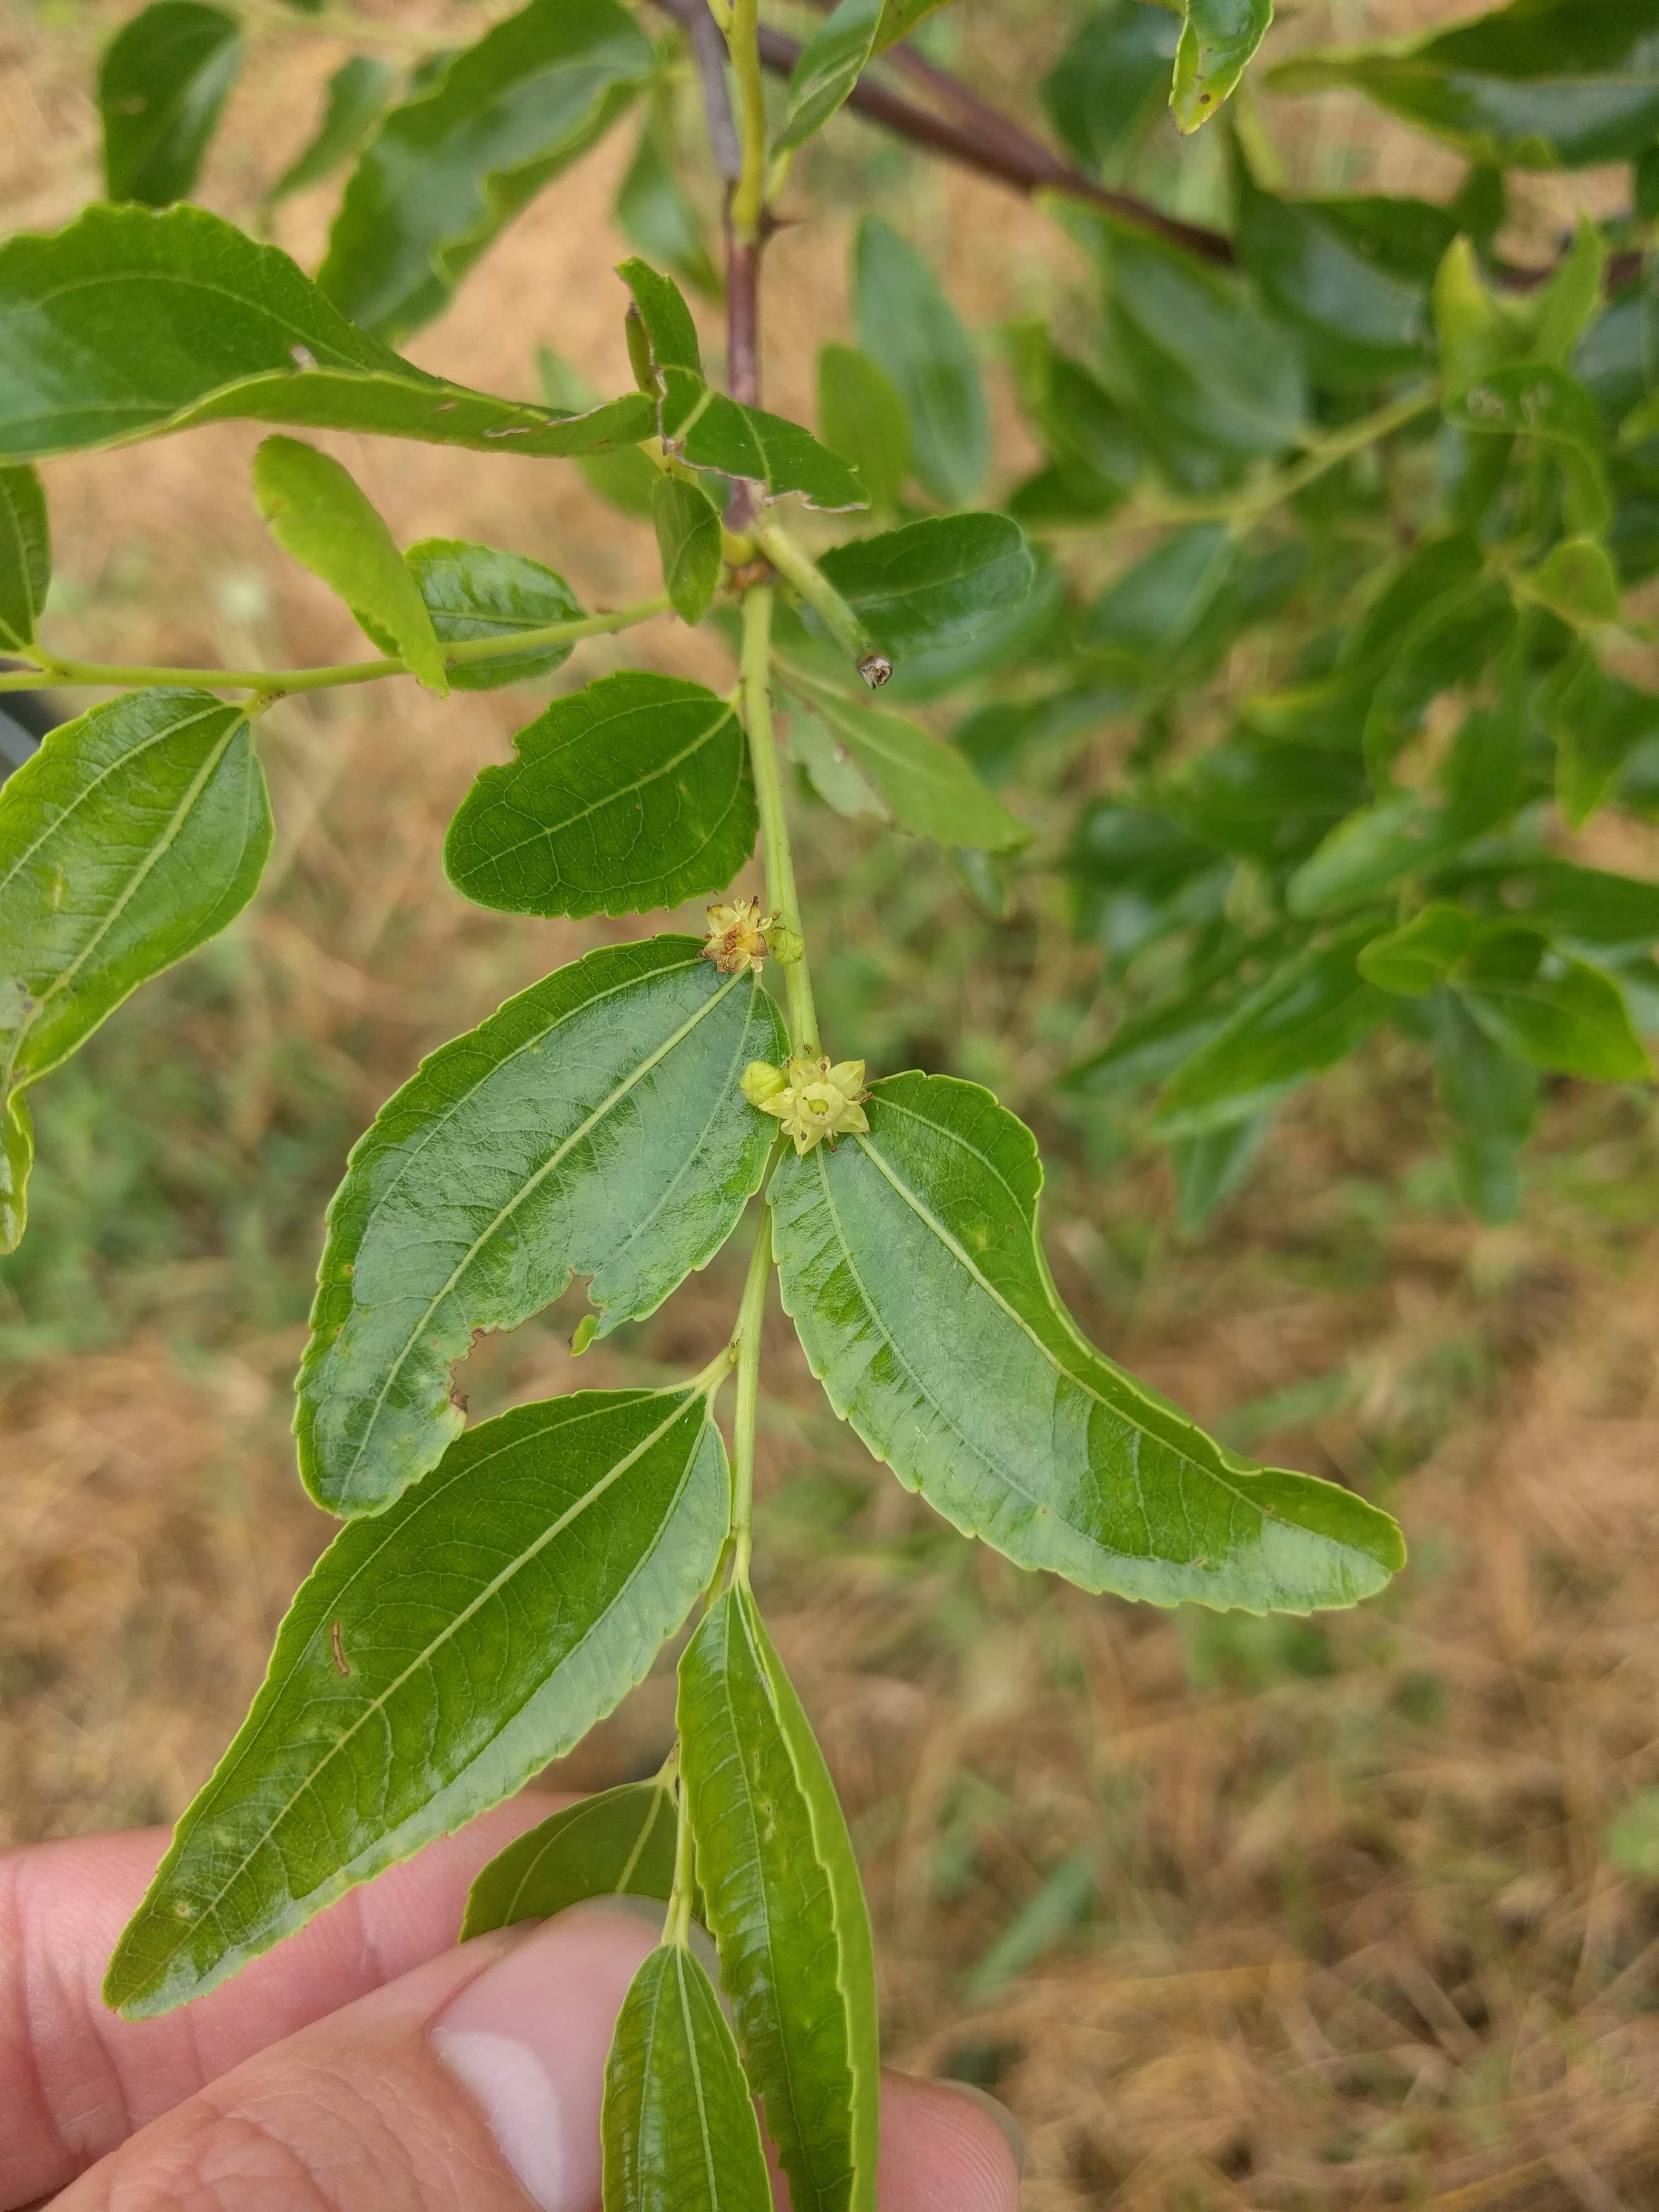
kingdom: Plantae
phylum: Tracheophyta
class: Magnoliopsida
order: Rosales
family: Rhamnaceae
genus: Ziziphus
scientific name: Ziziphus jujuba
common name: Jujube
